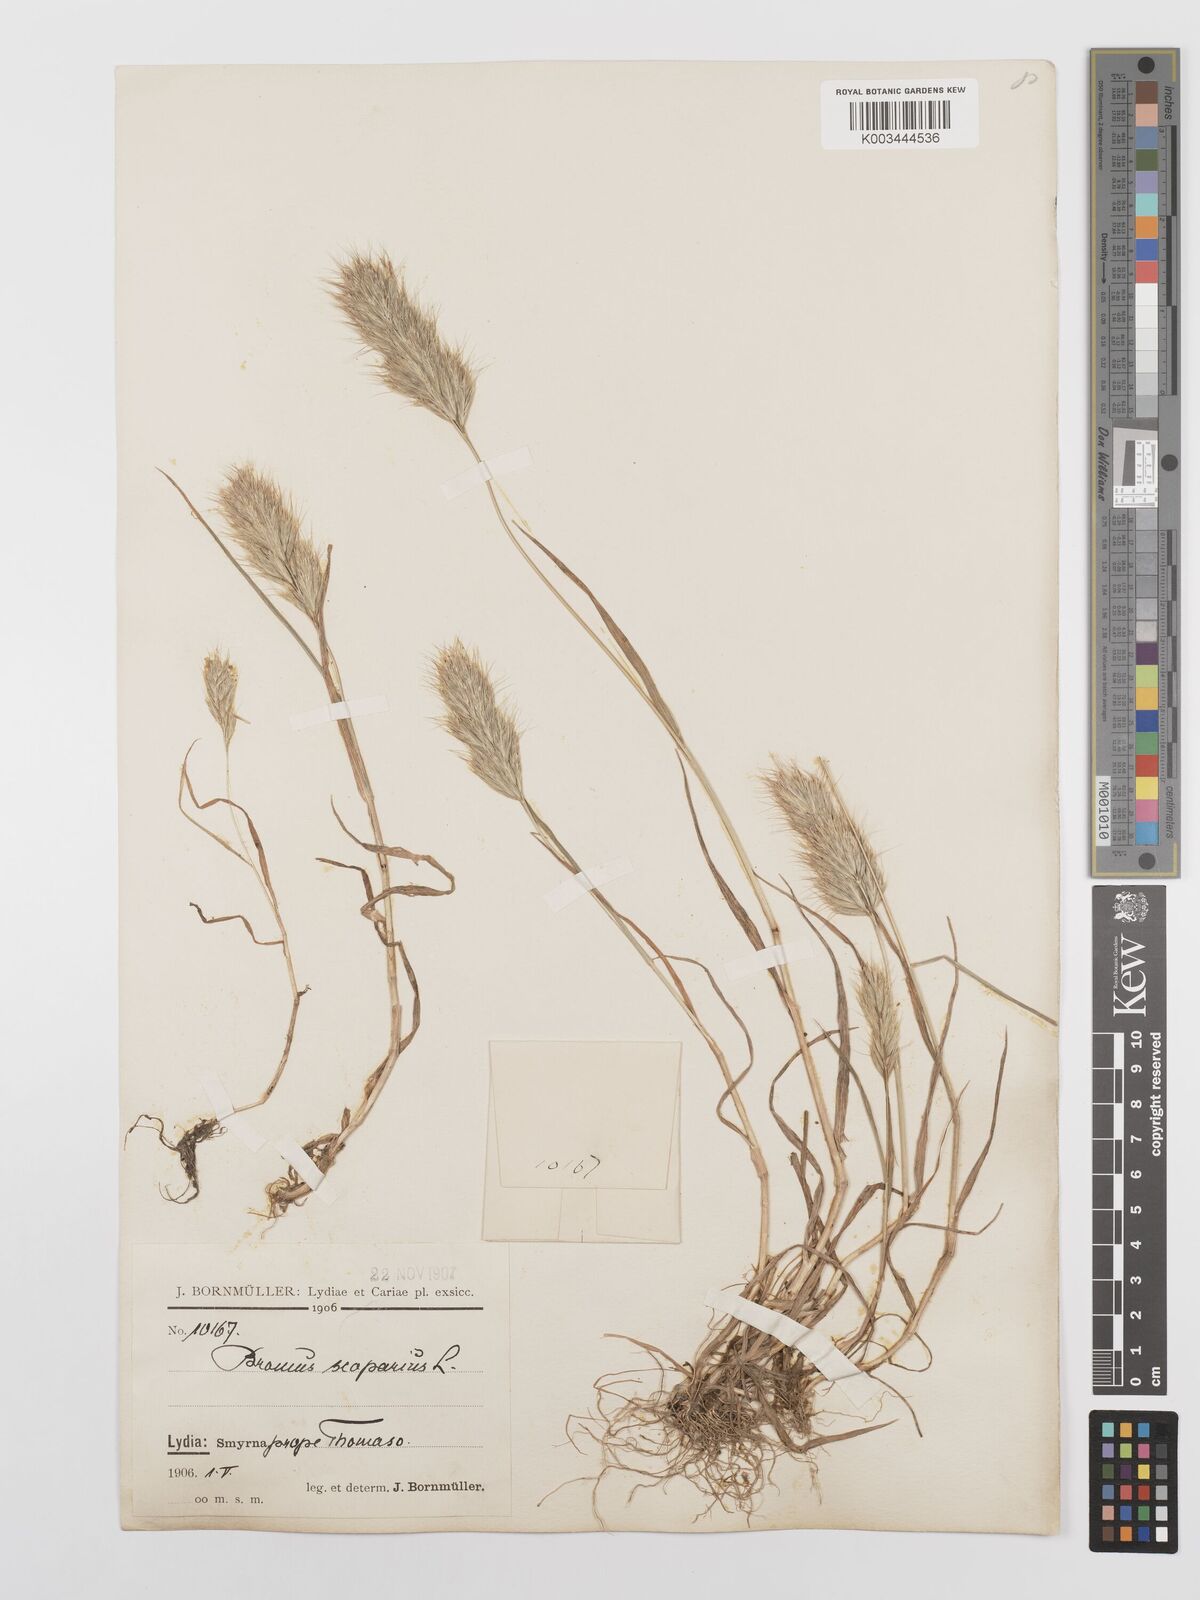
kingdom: Plantae
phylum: Tracheophyta
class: Liliopsida
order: Poales
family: Poaceae
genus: Bromus
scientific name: Bromus scoparius
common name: Broom brome
